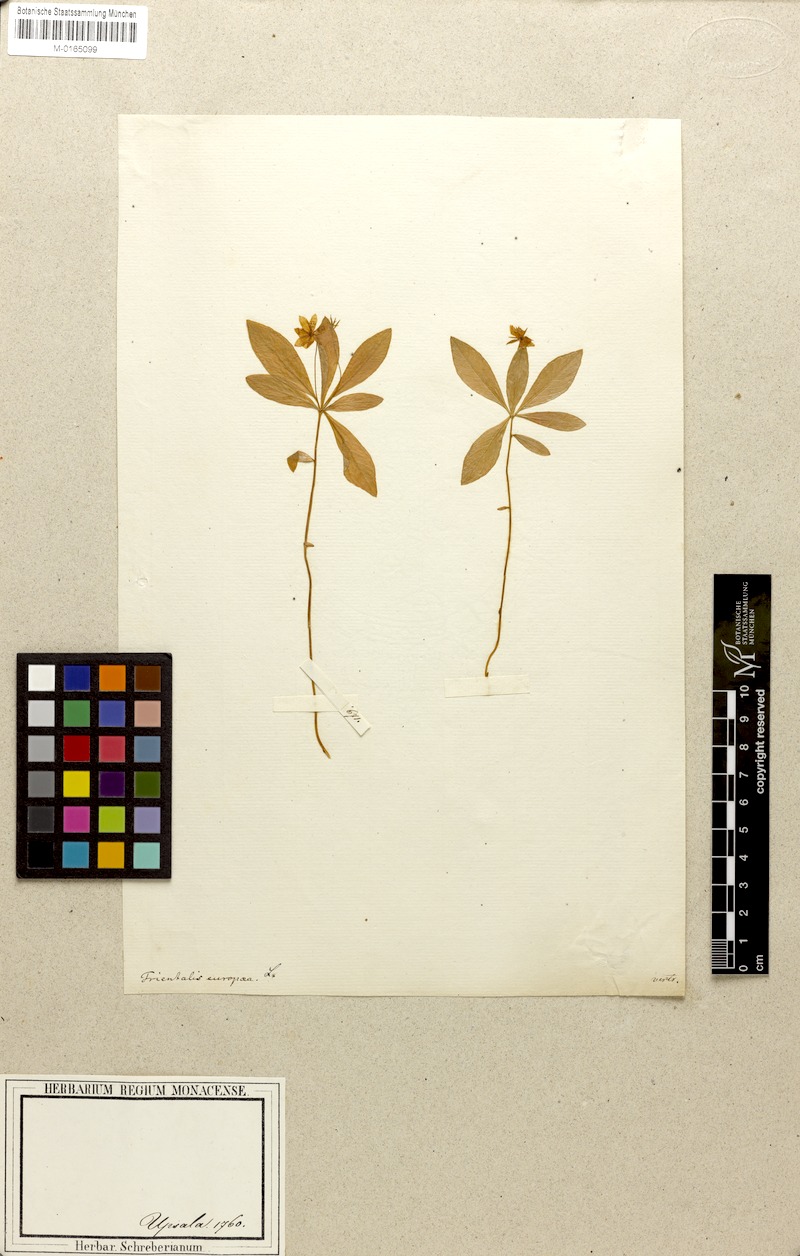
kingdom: Plantae
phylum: Tracheophyta
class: Magnoliopsida
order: Ericales
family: Primulaceae
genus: Lysimachia
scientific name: Lysimachia europaea
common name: Arctic starflower
